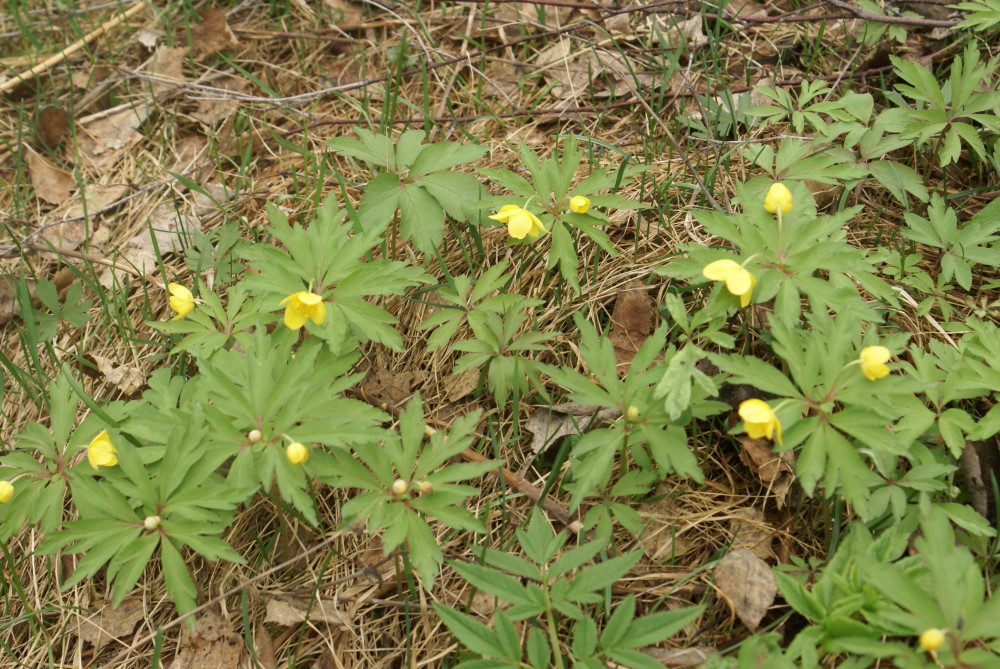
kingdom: Plantae
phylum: Tracheophyta
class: Magnoliopsida
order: Ranunculales
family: Ranunculaceae
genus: Anemone
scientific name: Anemone ranunculoides
